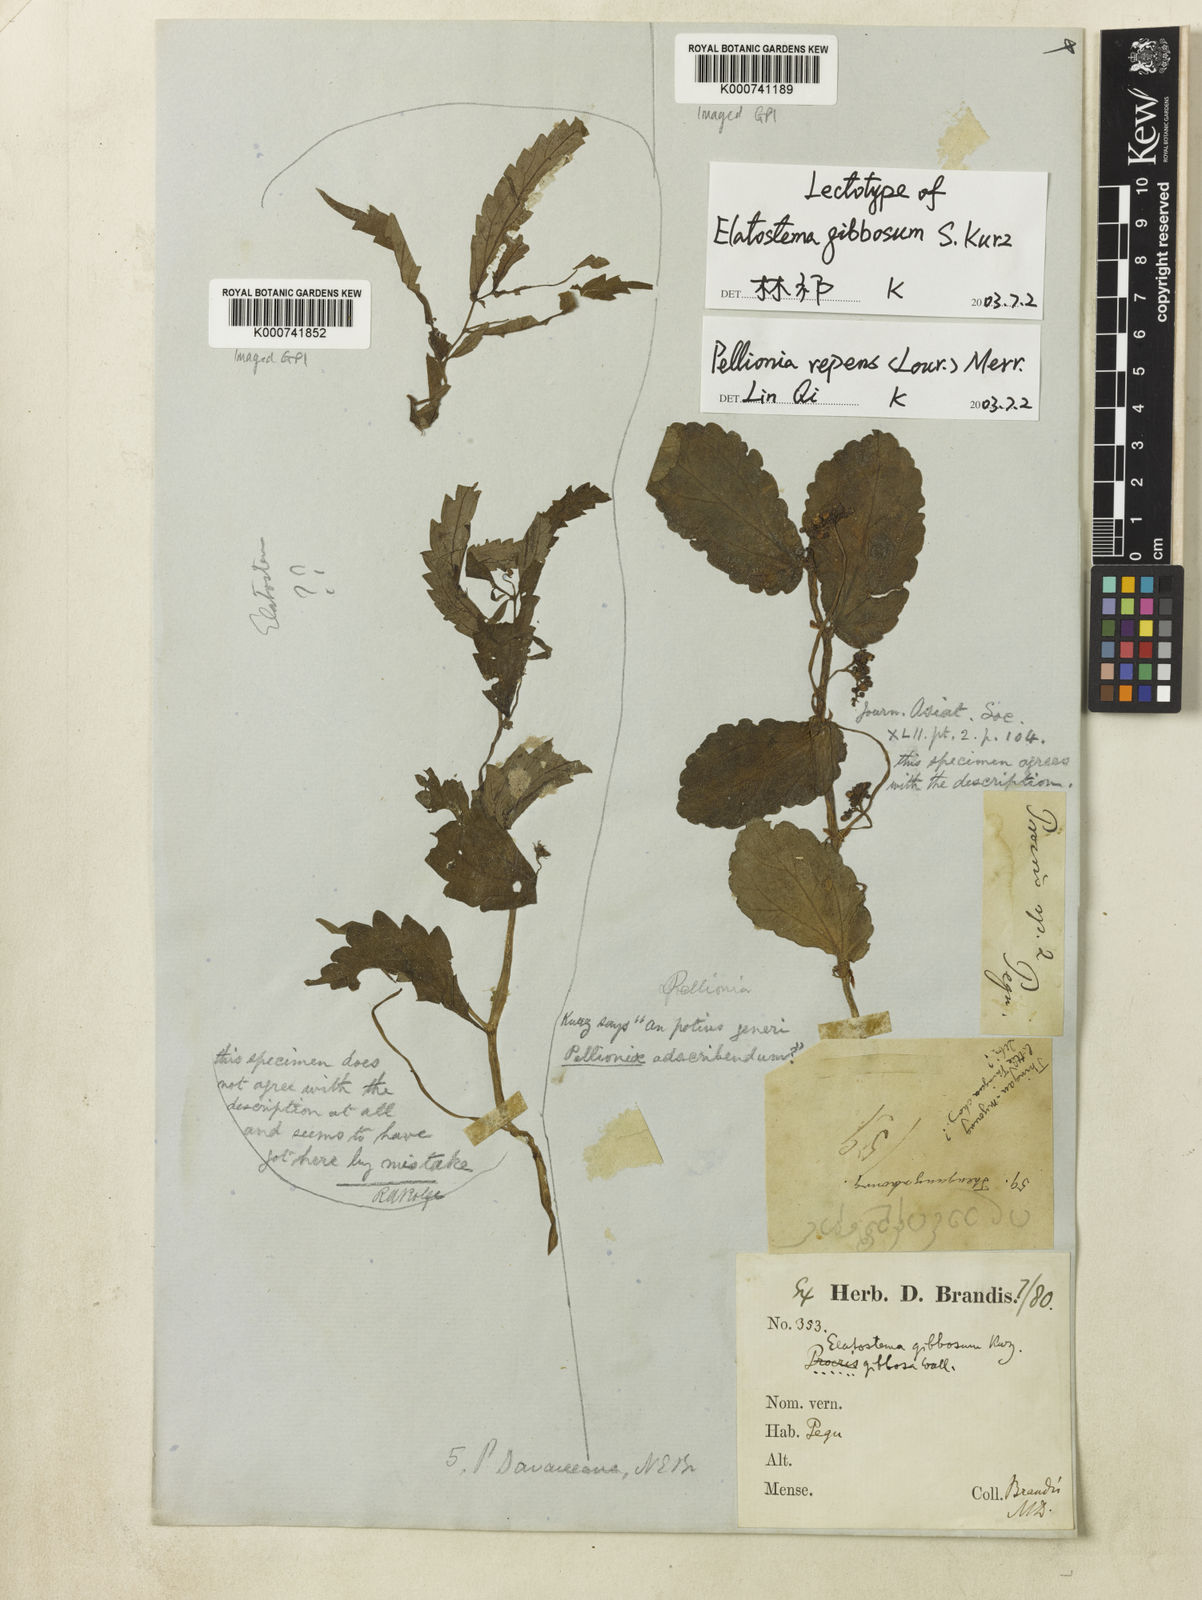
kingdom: Plantae
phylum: Tracheophyta
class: Magnoliopsida
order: Rosales
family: Urticaceae
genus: Procris
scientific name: Procris repens
